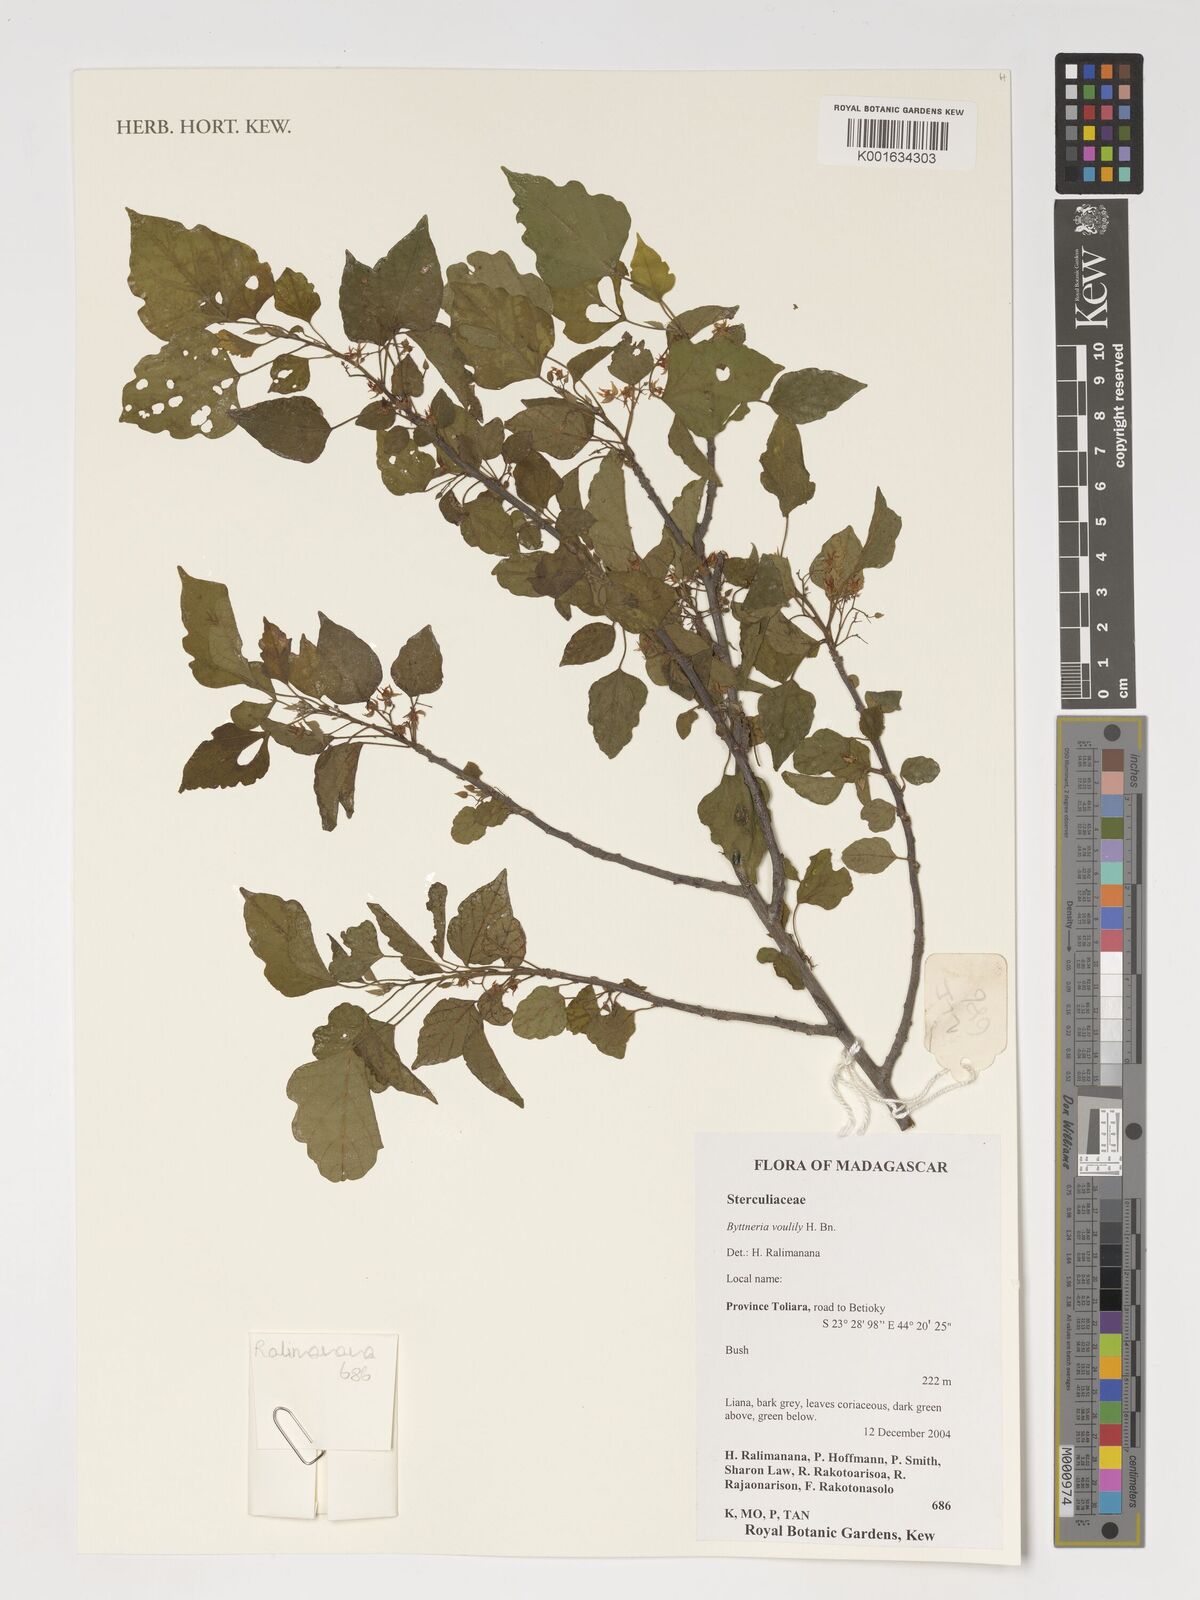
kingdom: Plantae
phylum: Tracheophyta
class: Magnoliopsida
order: Malvales
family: Malvaceae
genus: Byttneria
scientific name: Byttneria voulily
